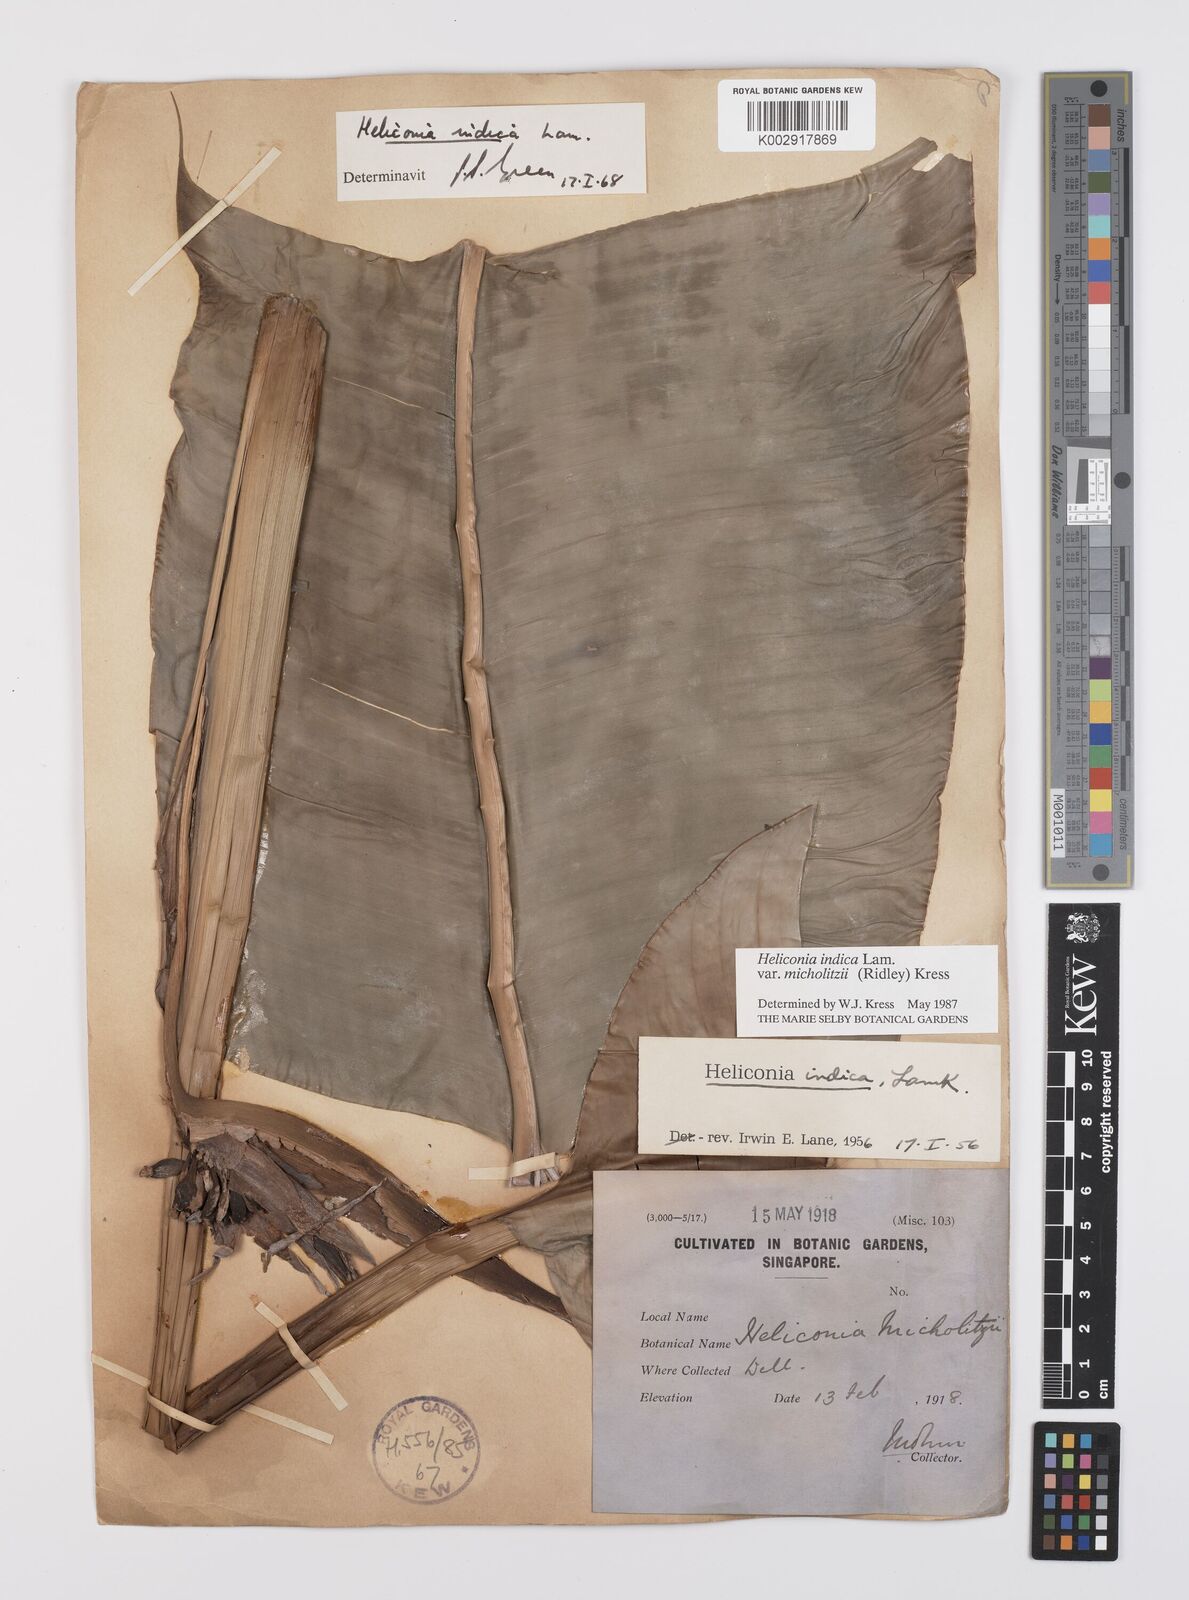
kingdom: Plantae
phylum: Tracheophyta
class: Liliopsida
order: Zingiberales
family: Heliconiaceae
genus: Heliconia
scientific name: Heliconia indica
